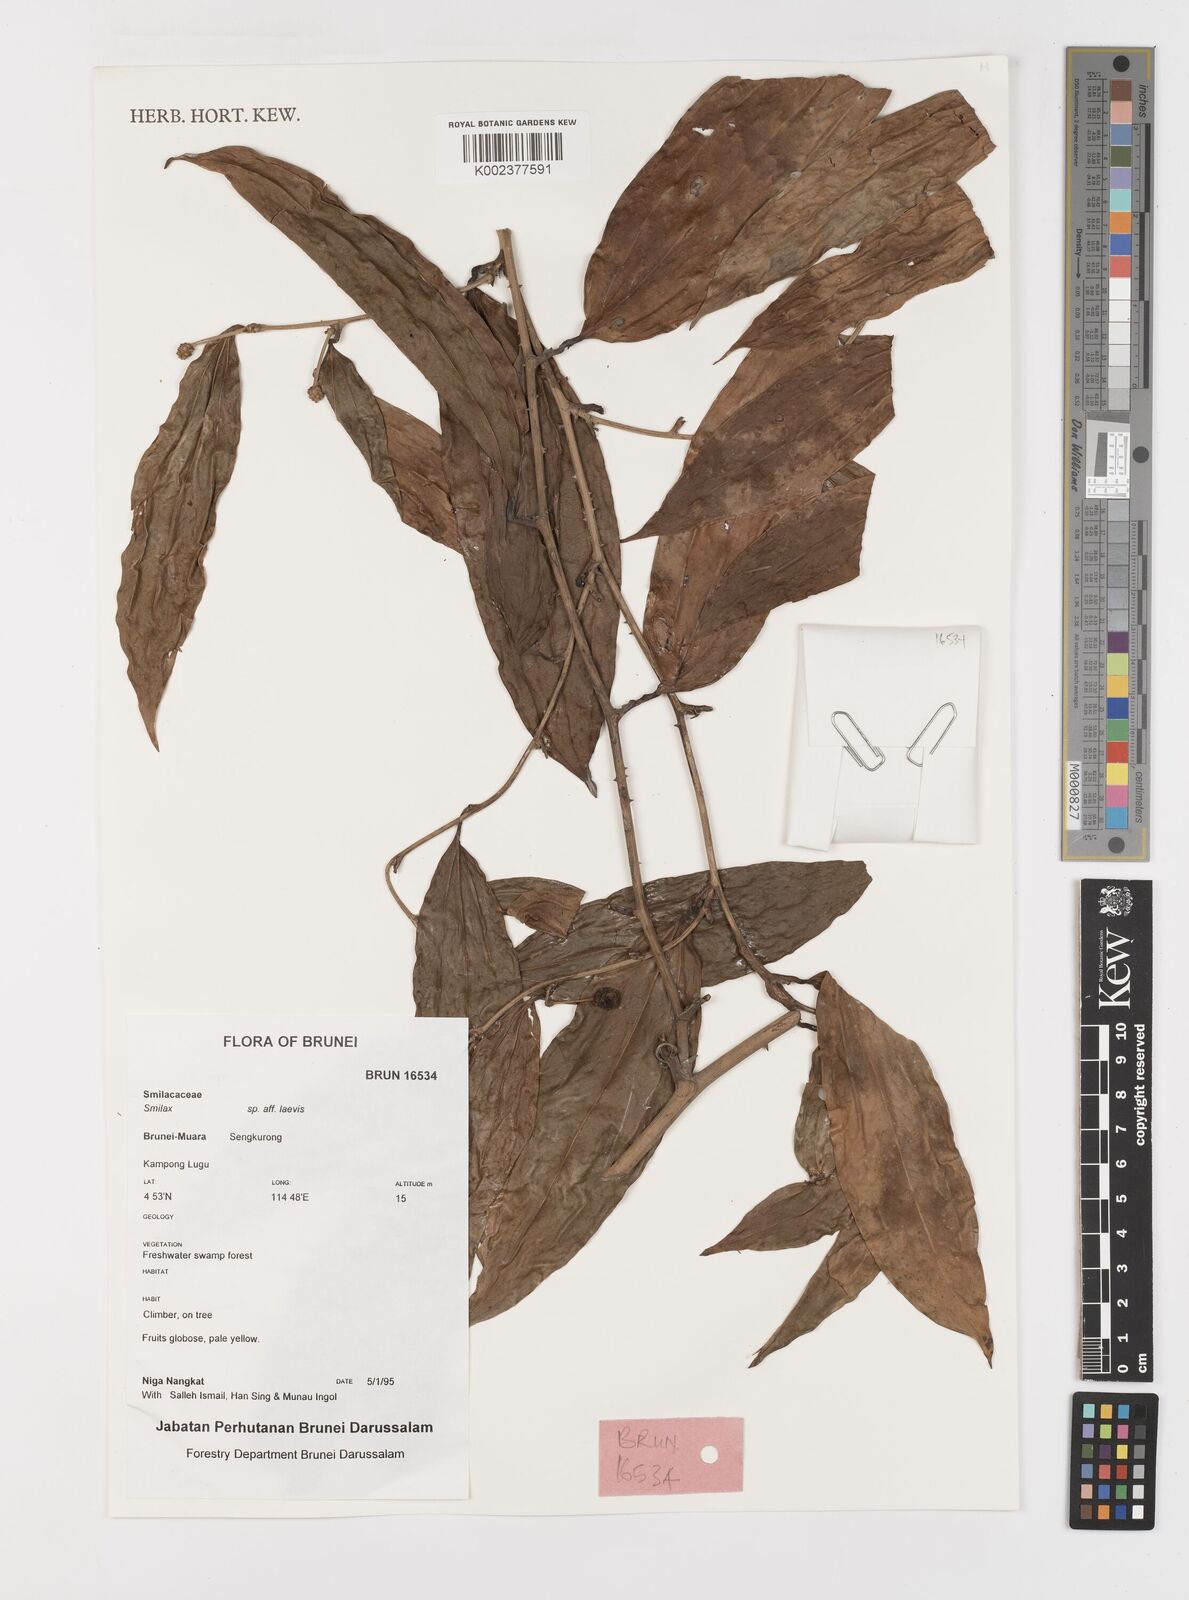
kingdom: Plantae
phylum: Tracheophyta
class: Liliopsida
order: Liliales
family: Smilacaceae
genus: Smilax
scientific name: Smilax laevis
